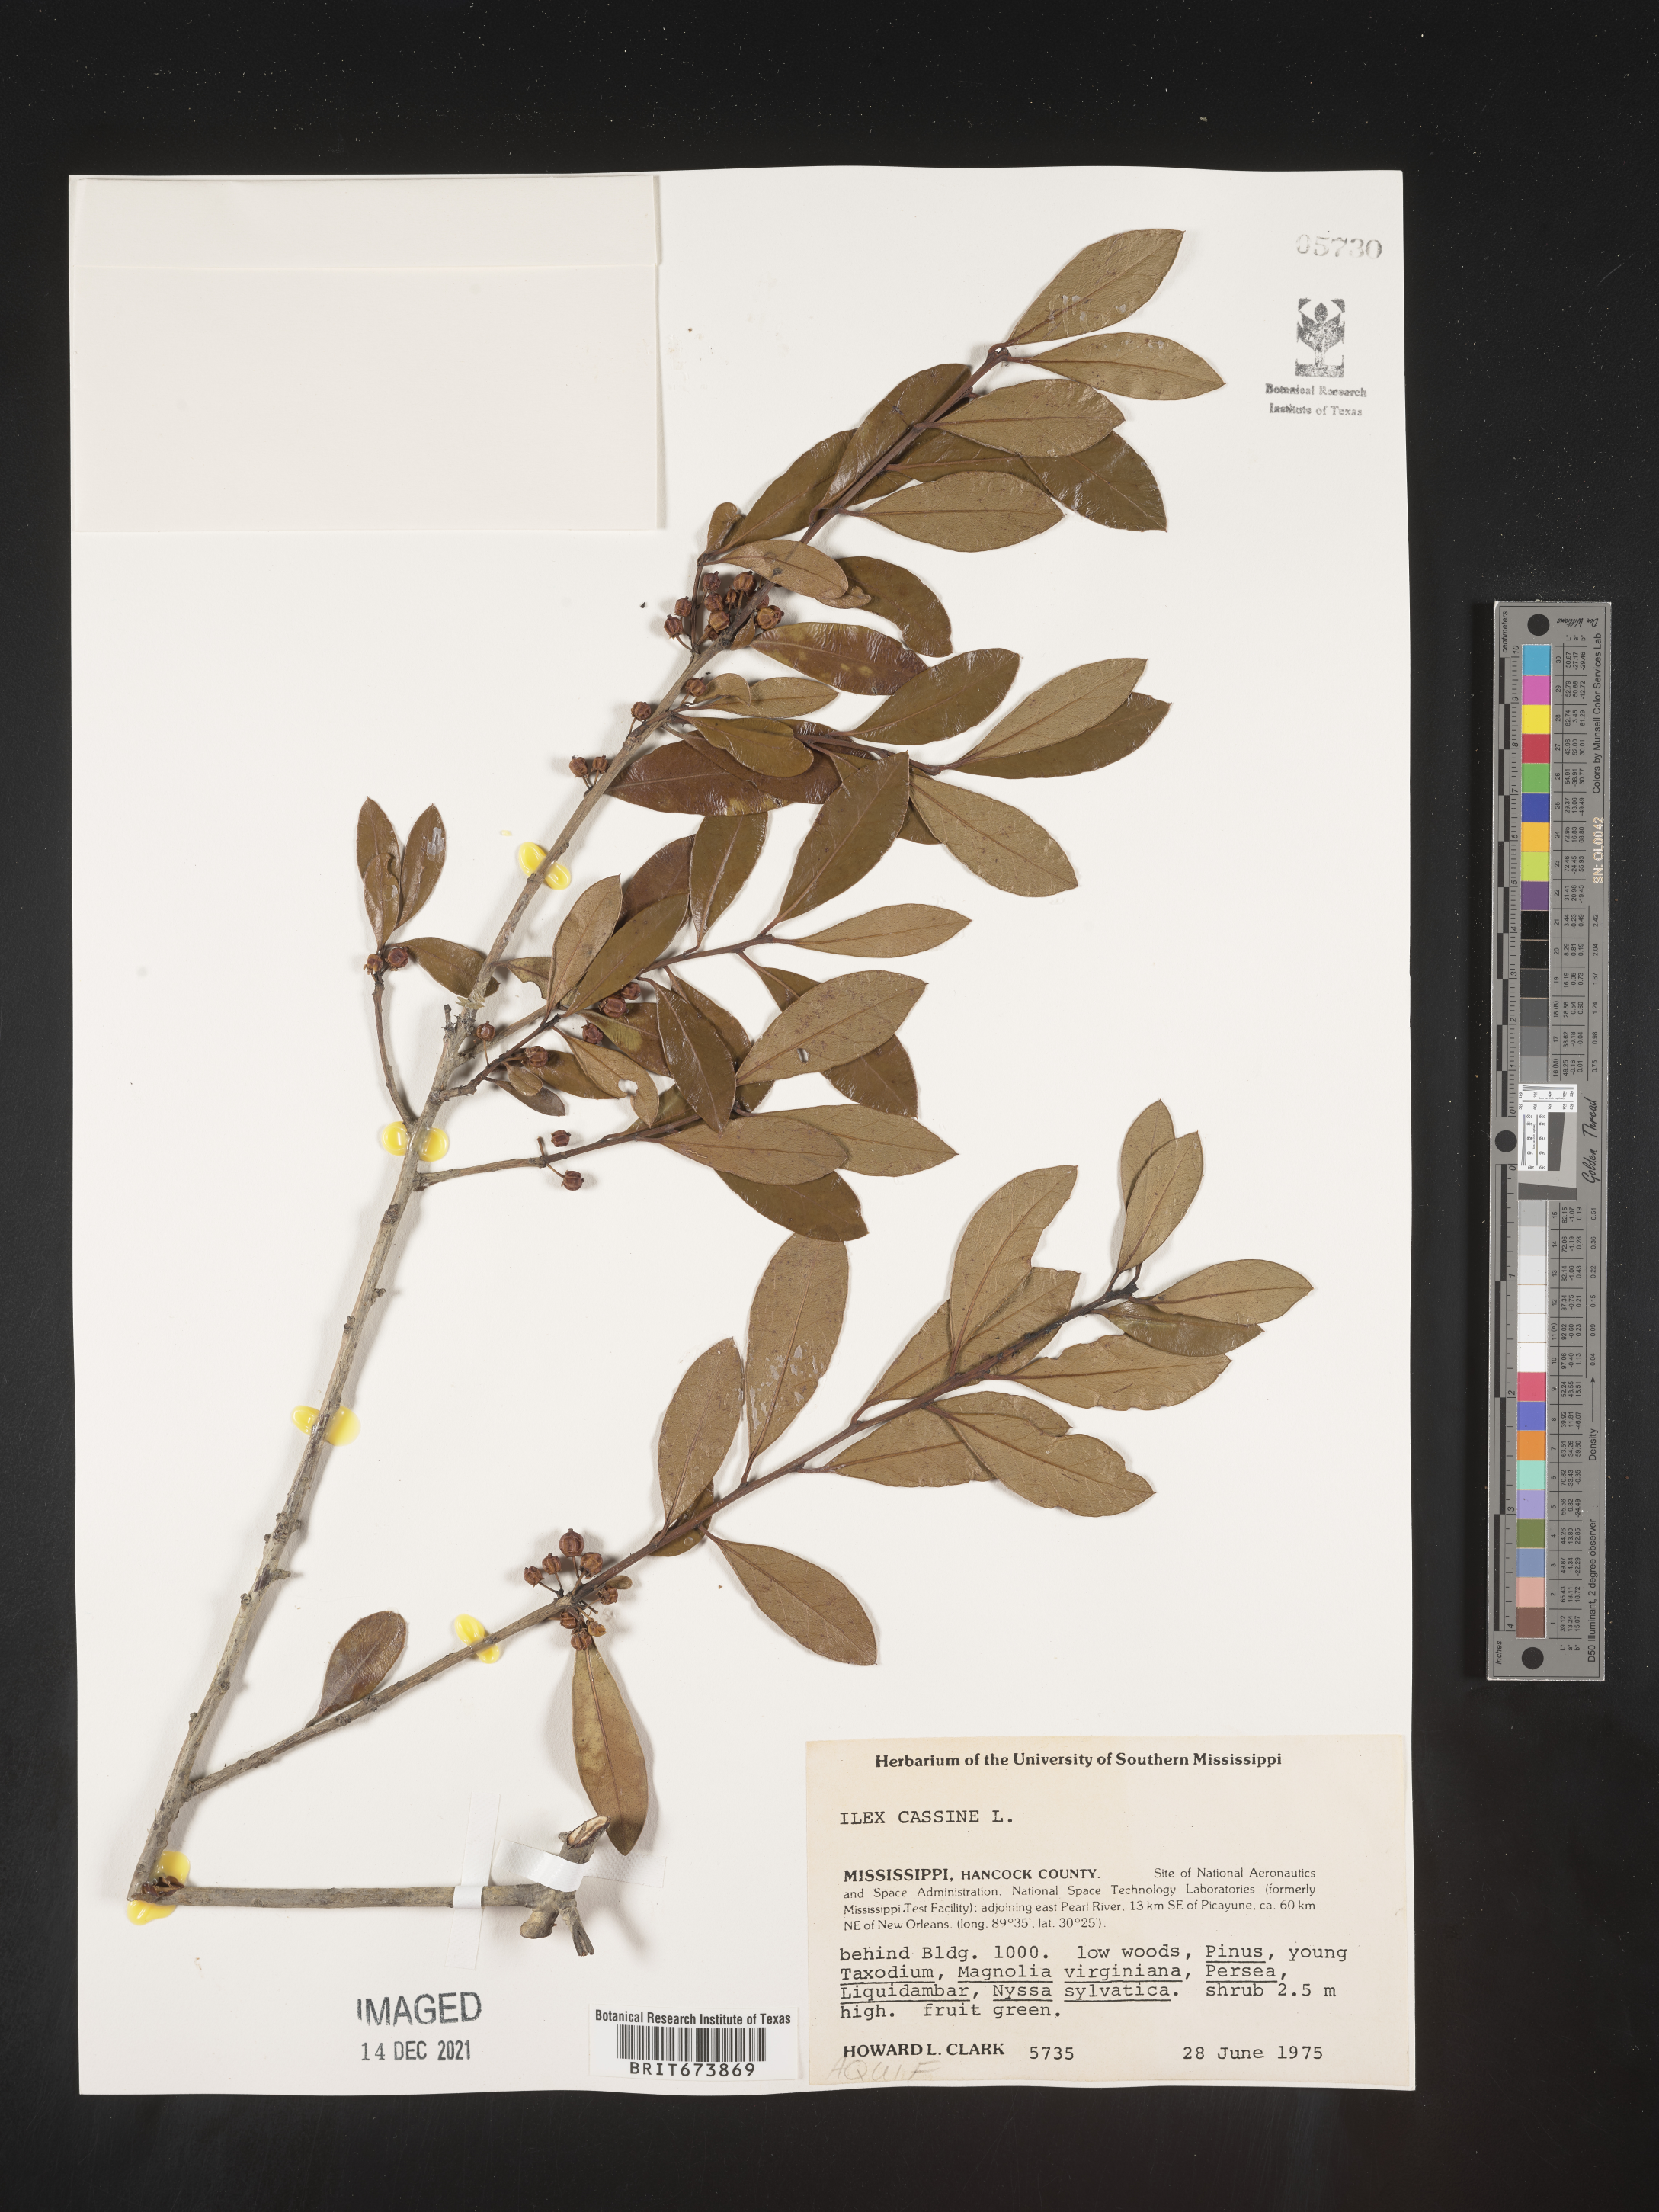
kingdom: Plantae
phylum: Tracheophyta
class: Magnoliopsida
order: Aquifoliales
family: Aquifoliaceae
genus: Ilex
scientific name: Ilex cassine
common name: Dahoon
